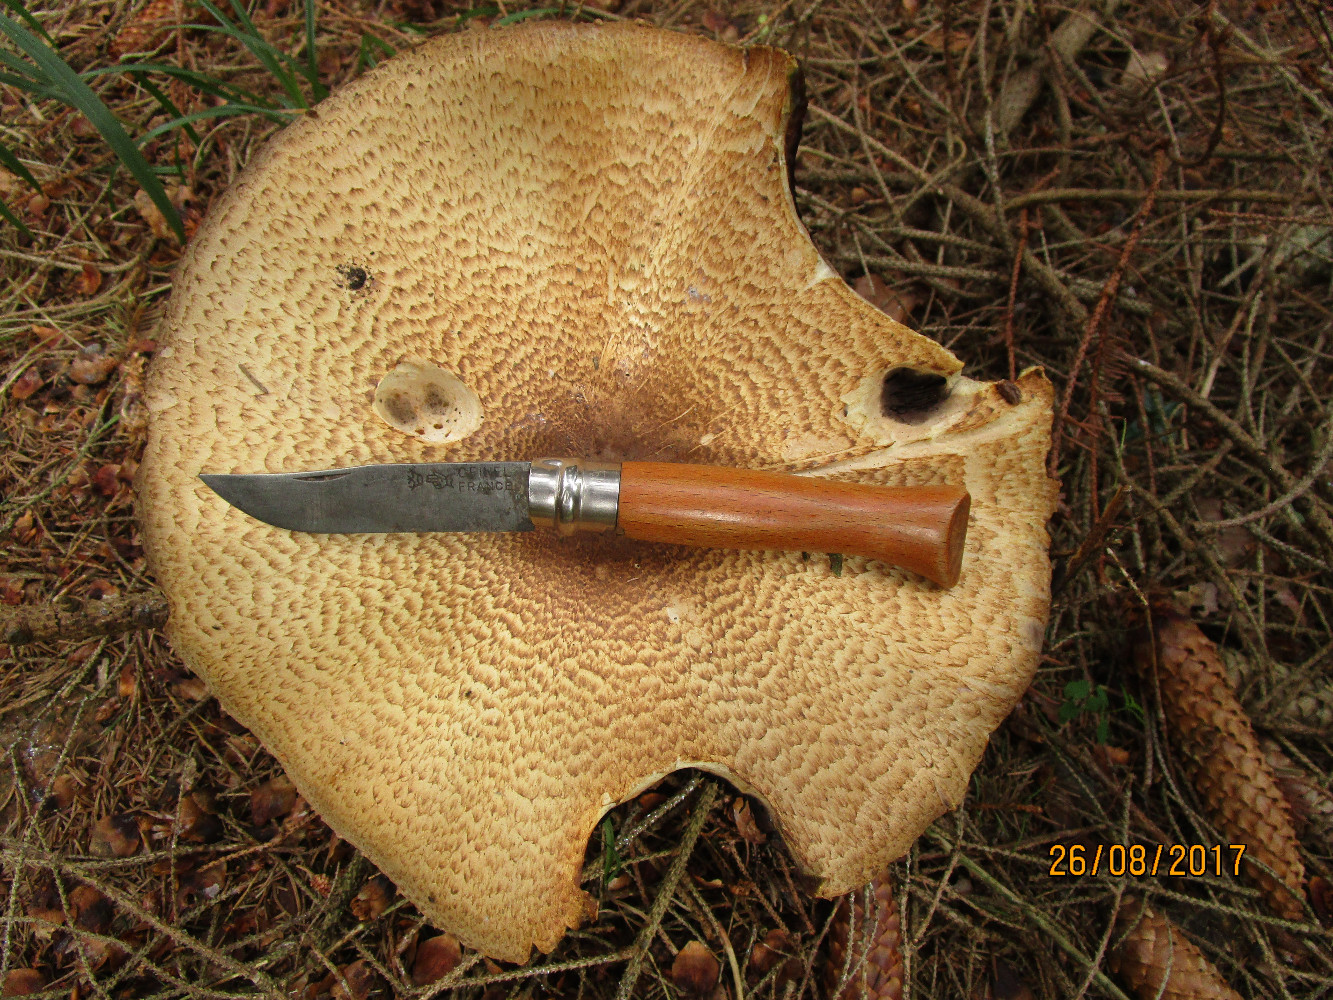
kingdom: Fungi
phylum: Basidiomycota
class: Agaricomycetes
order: Agaricales
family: Agaricaceae
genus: Agaricus
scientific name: Agaricus augustus
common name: prægtig champignon
